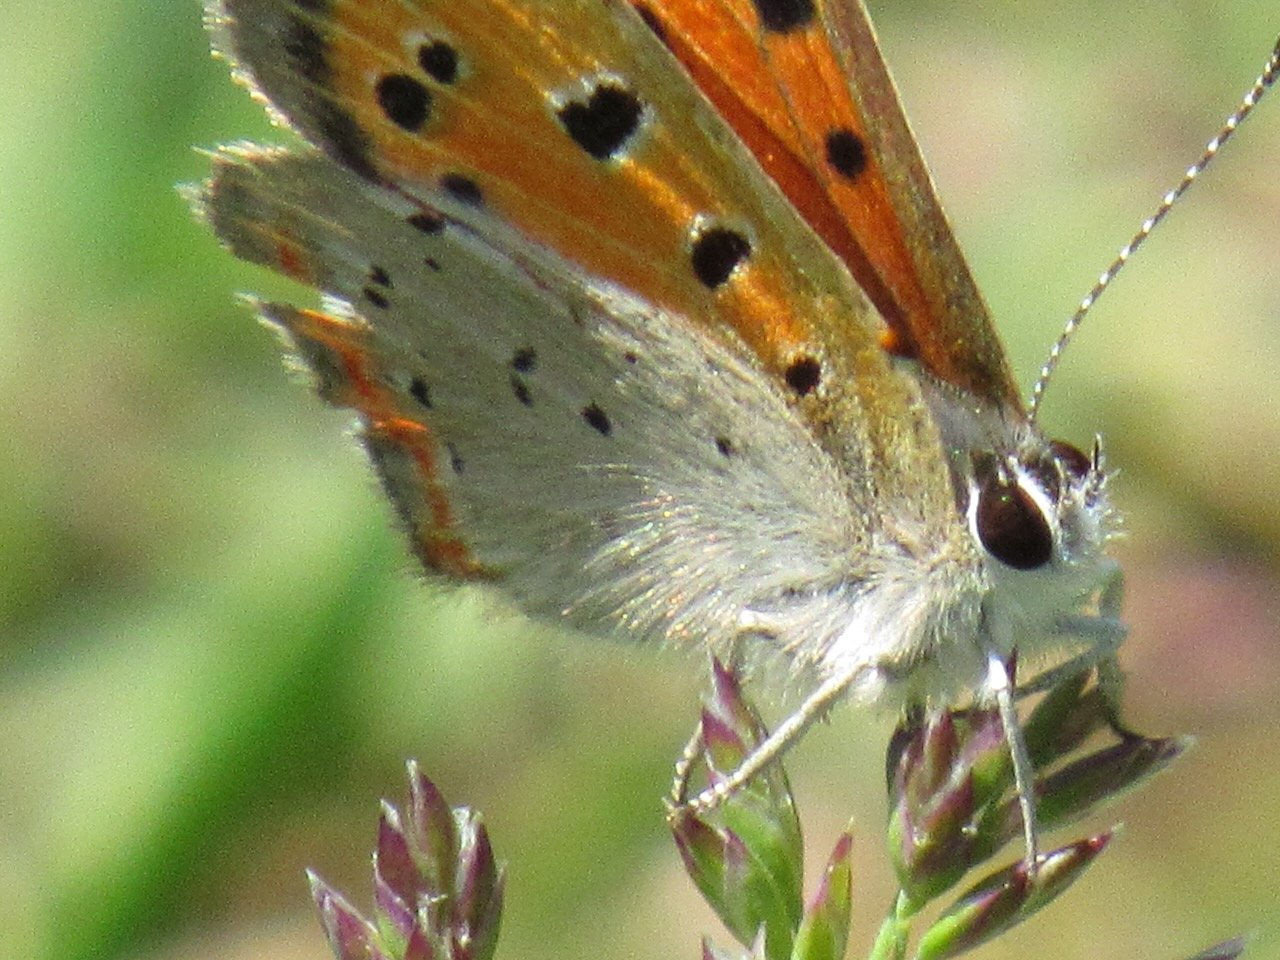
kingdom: Animalia
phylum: Arthropoda
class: Insecta
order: Lepidoptera
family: Lycaenidae
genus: Lycaena
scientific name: Lycaena phlaeas
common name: American Copper
